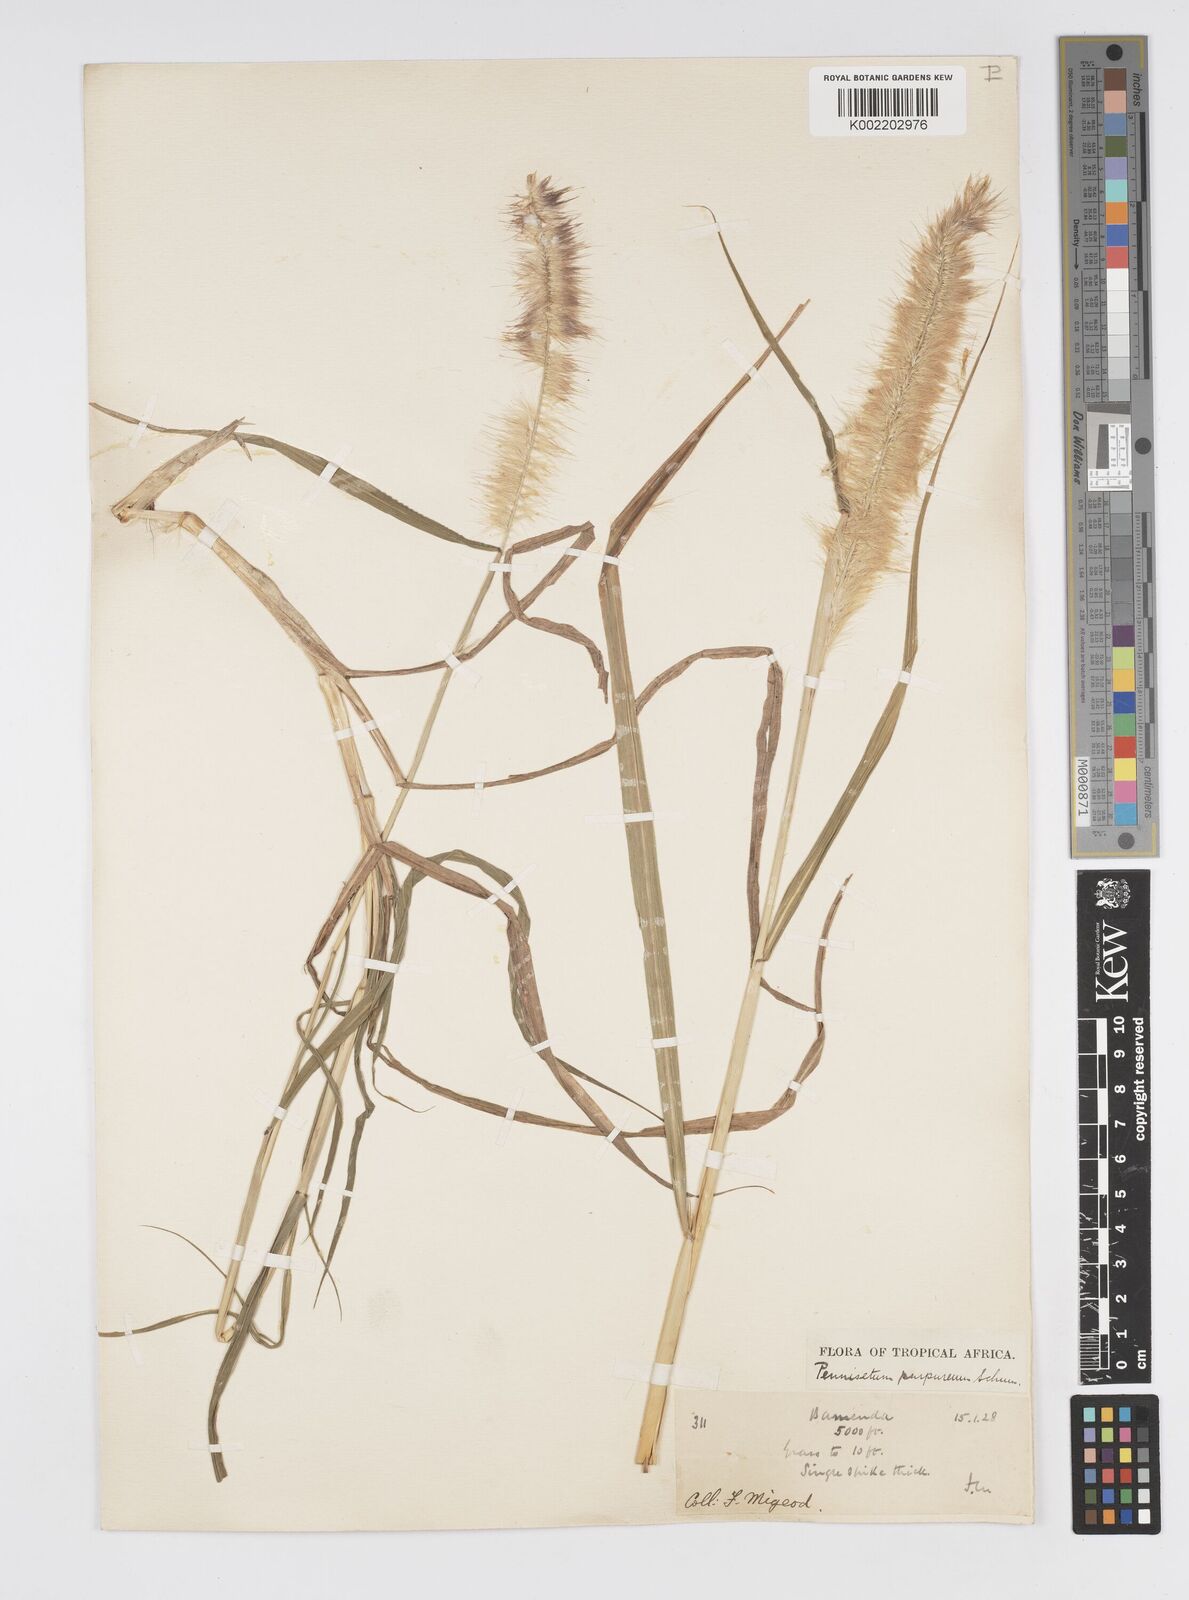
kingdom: Plantae
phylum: Tracheophyta
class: Liliopsida
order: Poales
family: Poaceae
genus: Cenchrus
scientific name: Cenchrus purpureus
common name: Elephant grass
